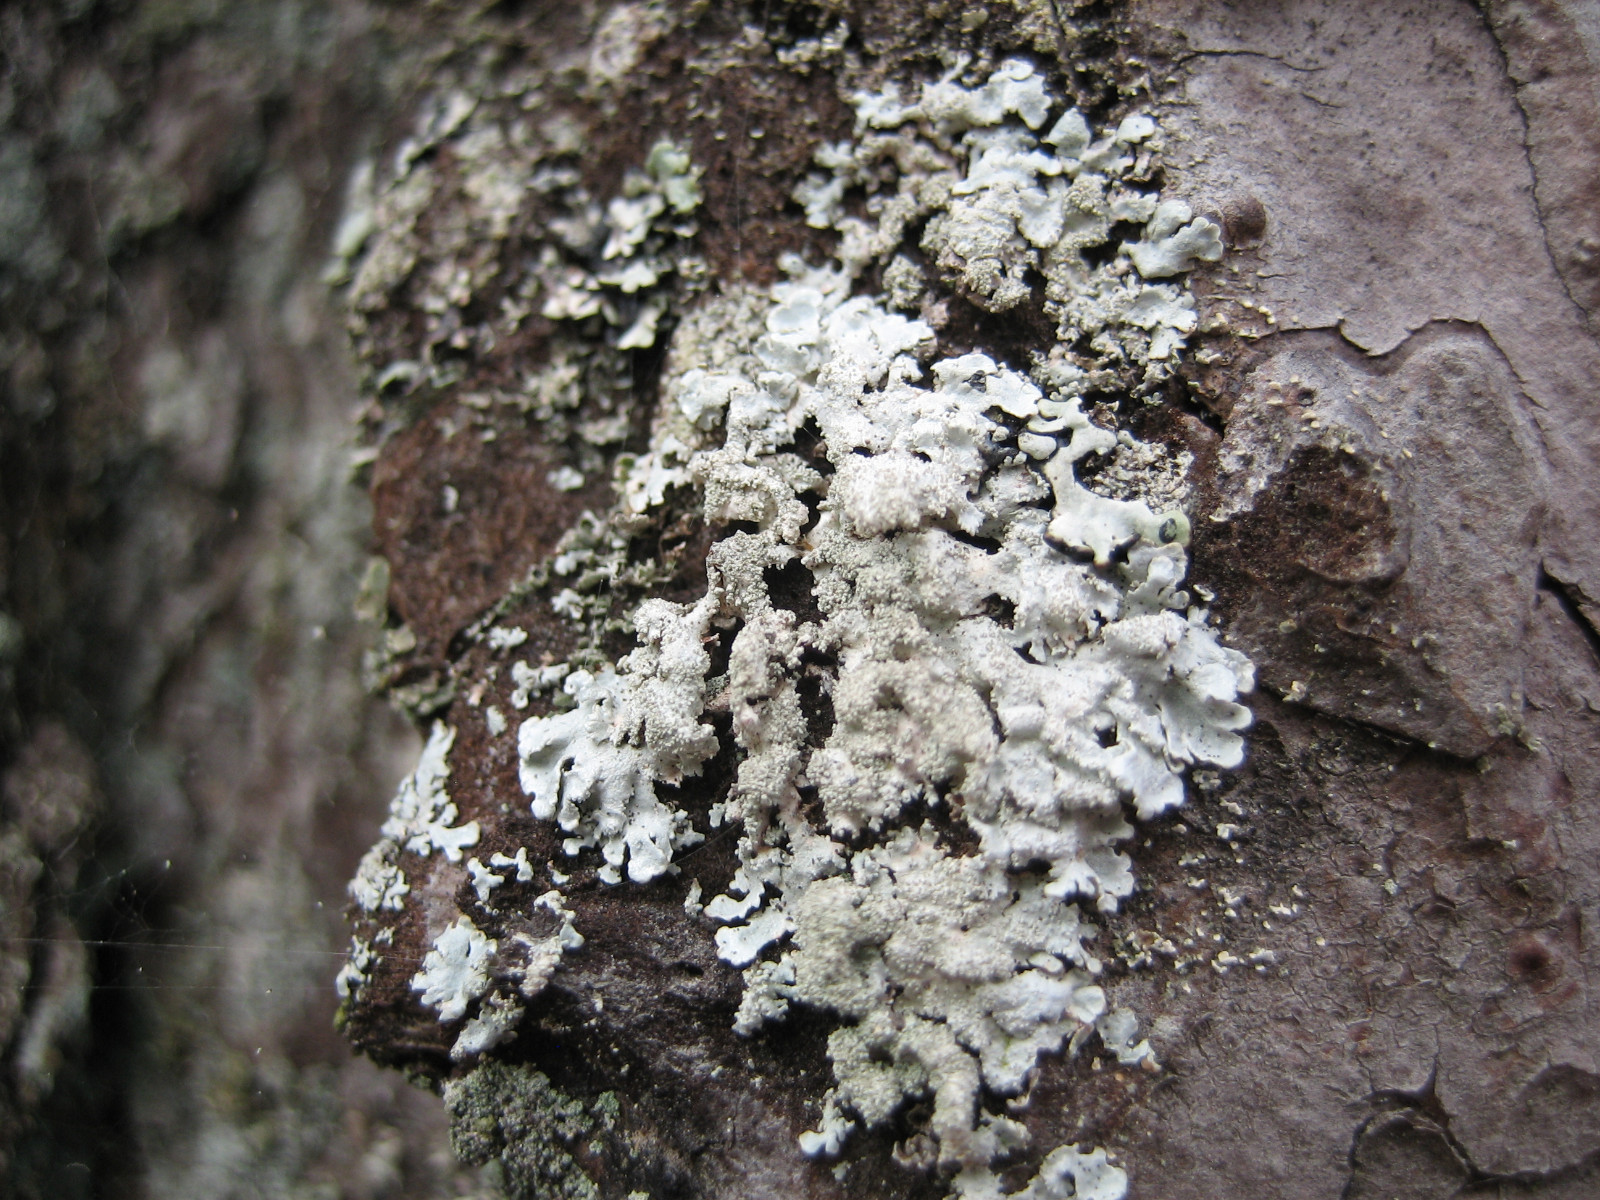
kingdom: Fungi
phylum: Ascomycota
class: Lecanoromycetes
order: Lecanorales
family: Parmeliaceae
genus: Imshaugia
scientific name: Imshaugia aleurites
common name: kliddet stolpelav
